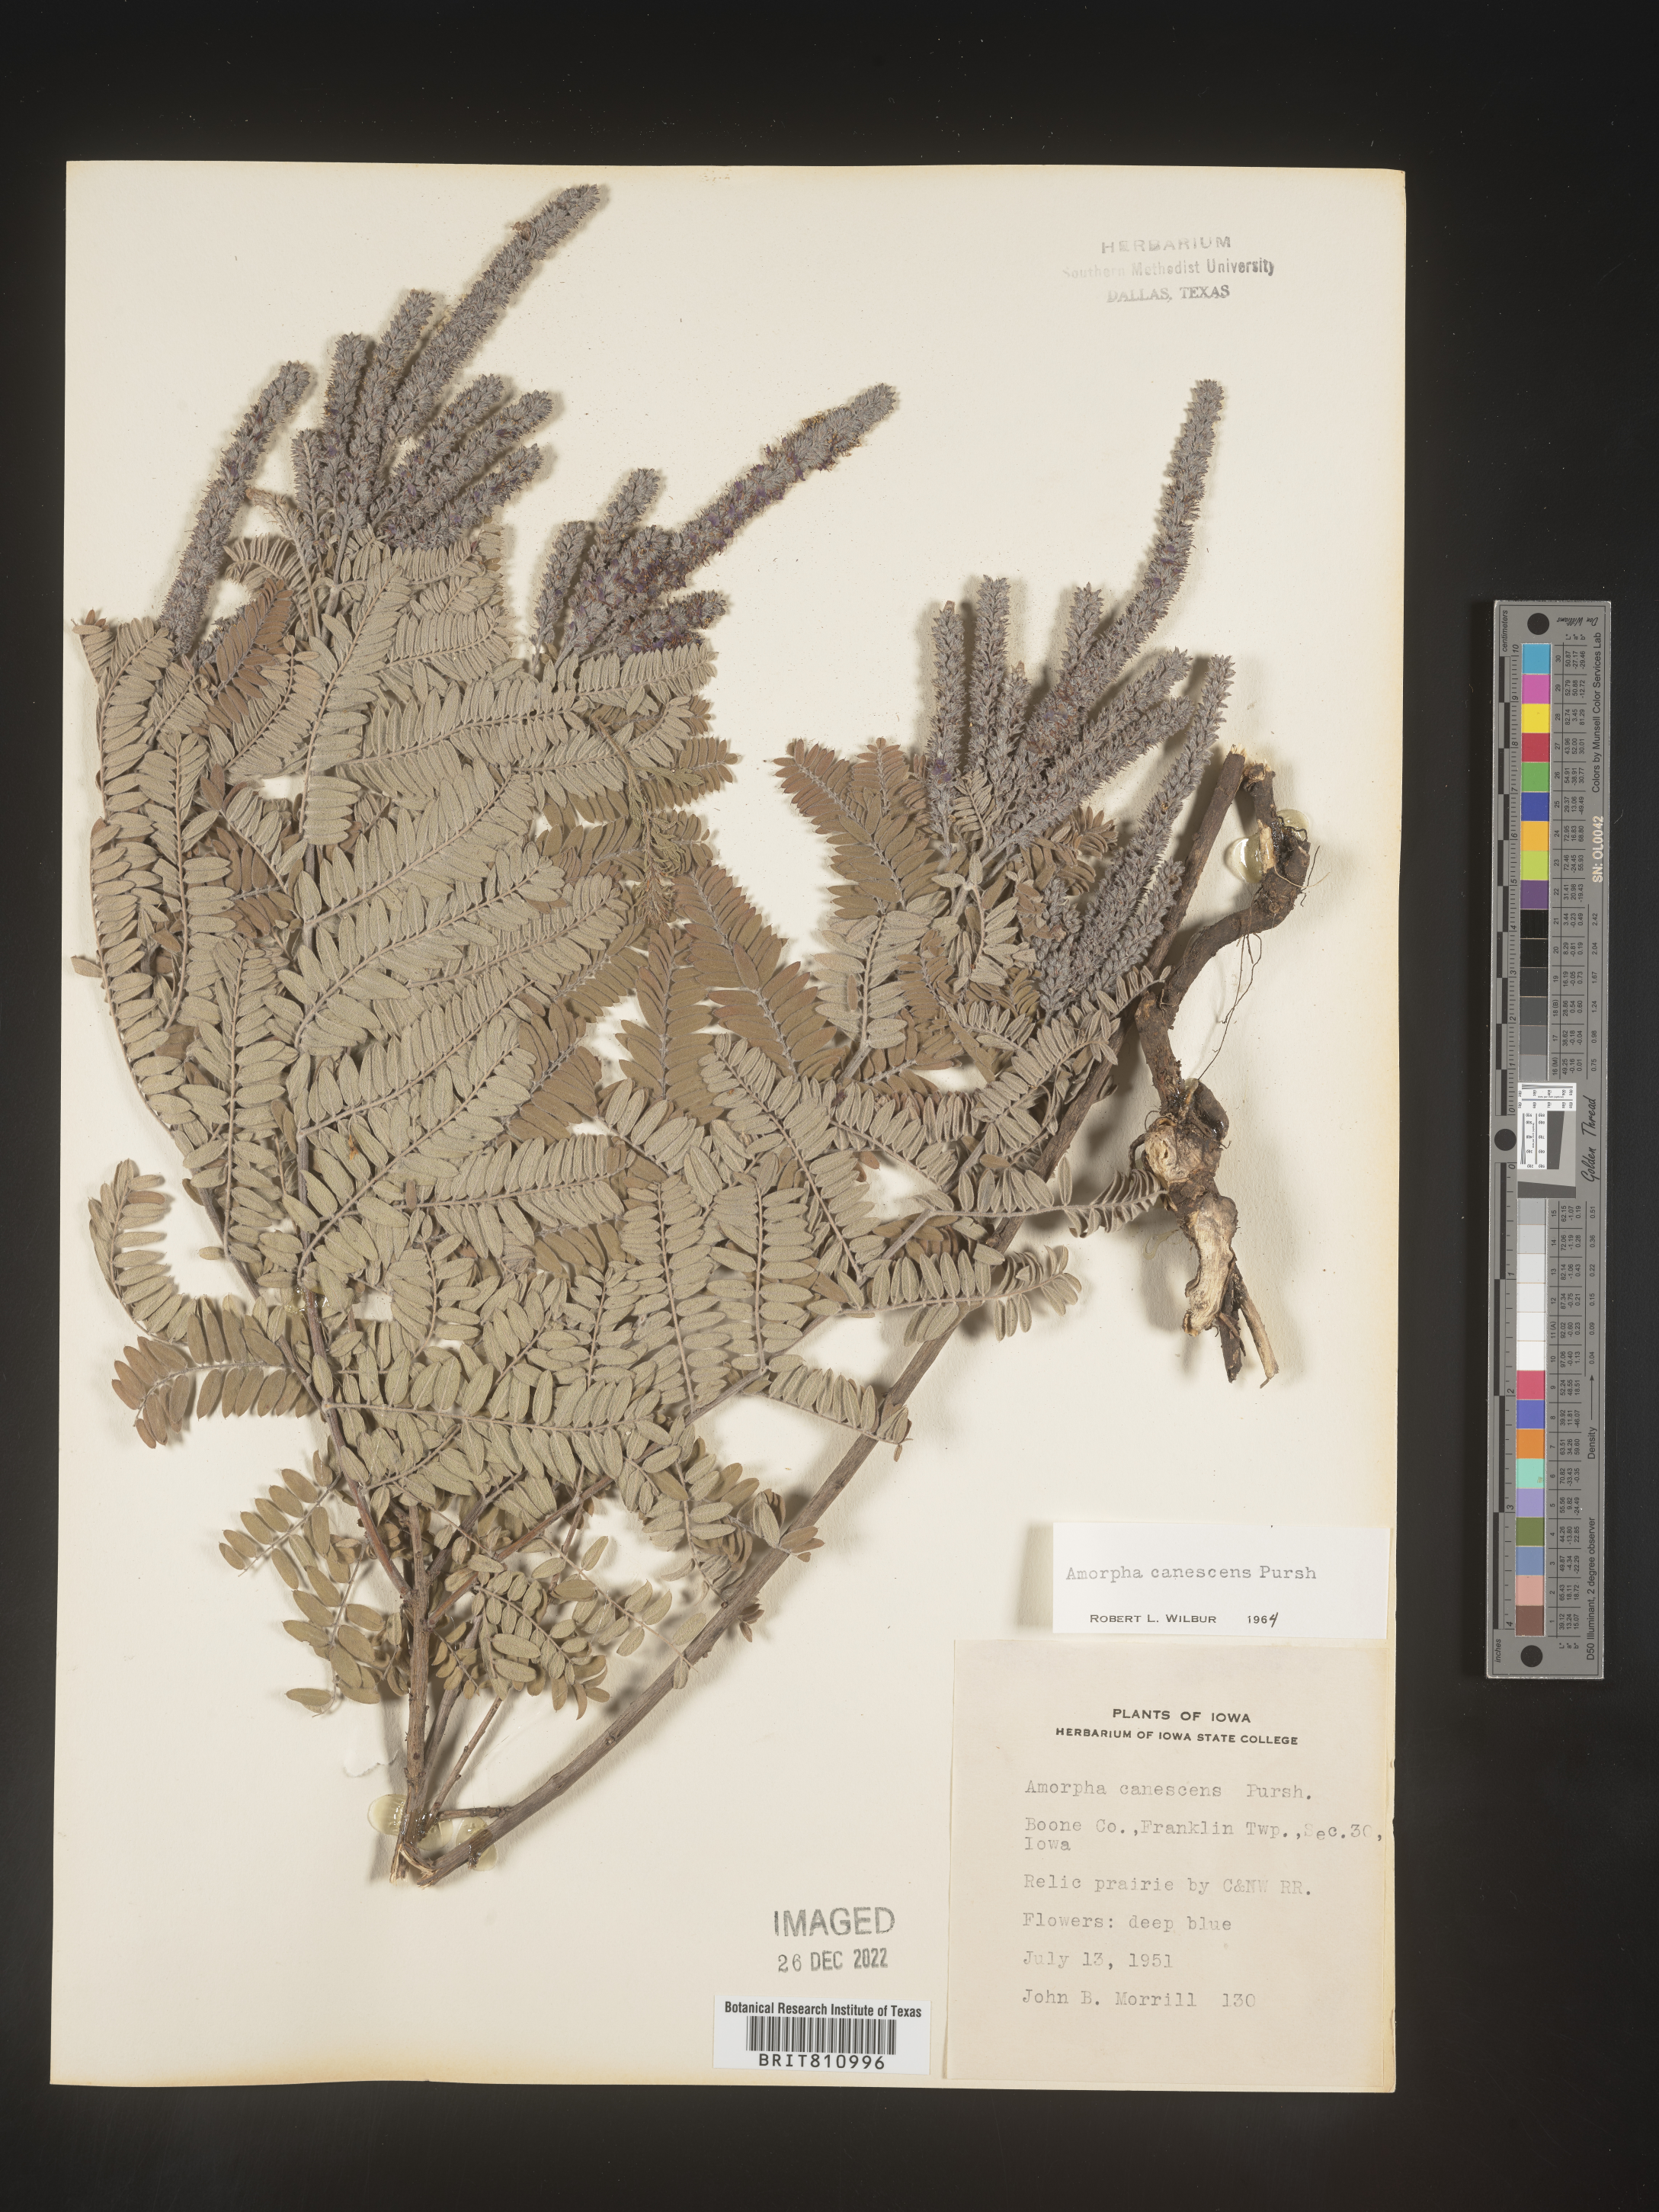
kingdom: Plantae
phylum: Tracheophyta
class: Magnoliopsida
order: Fabales
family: Fabaceae
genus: Amorpha
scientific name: Amorpha canescens
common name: Leadplant
